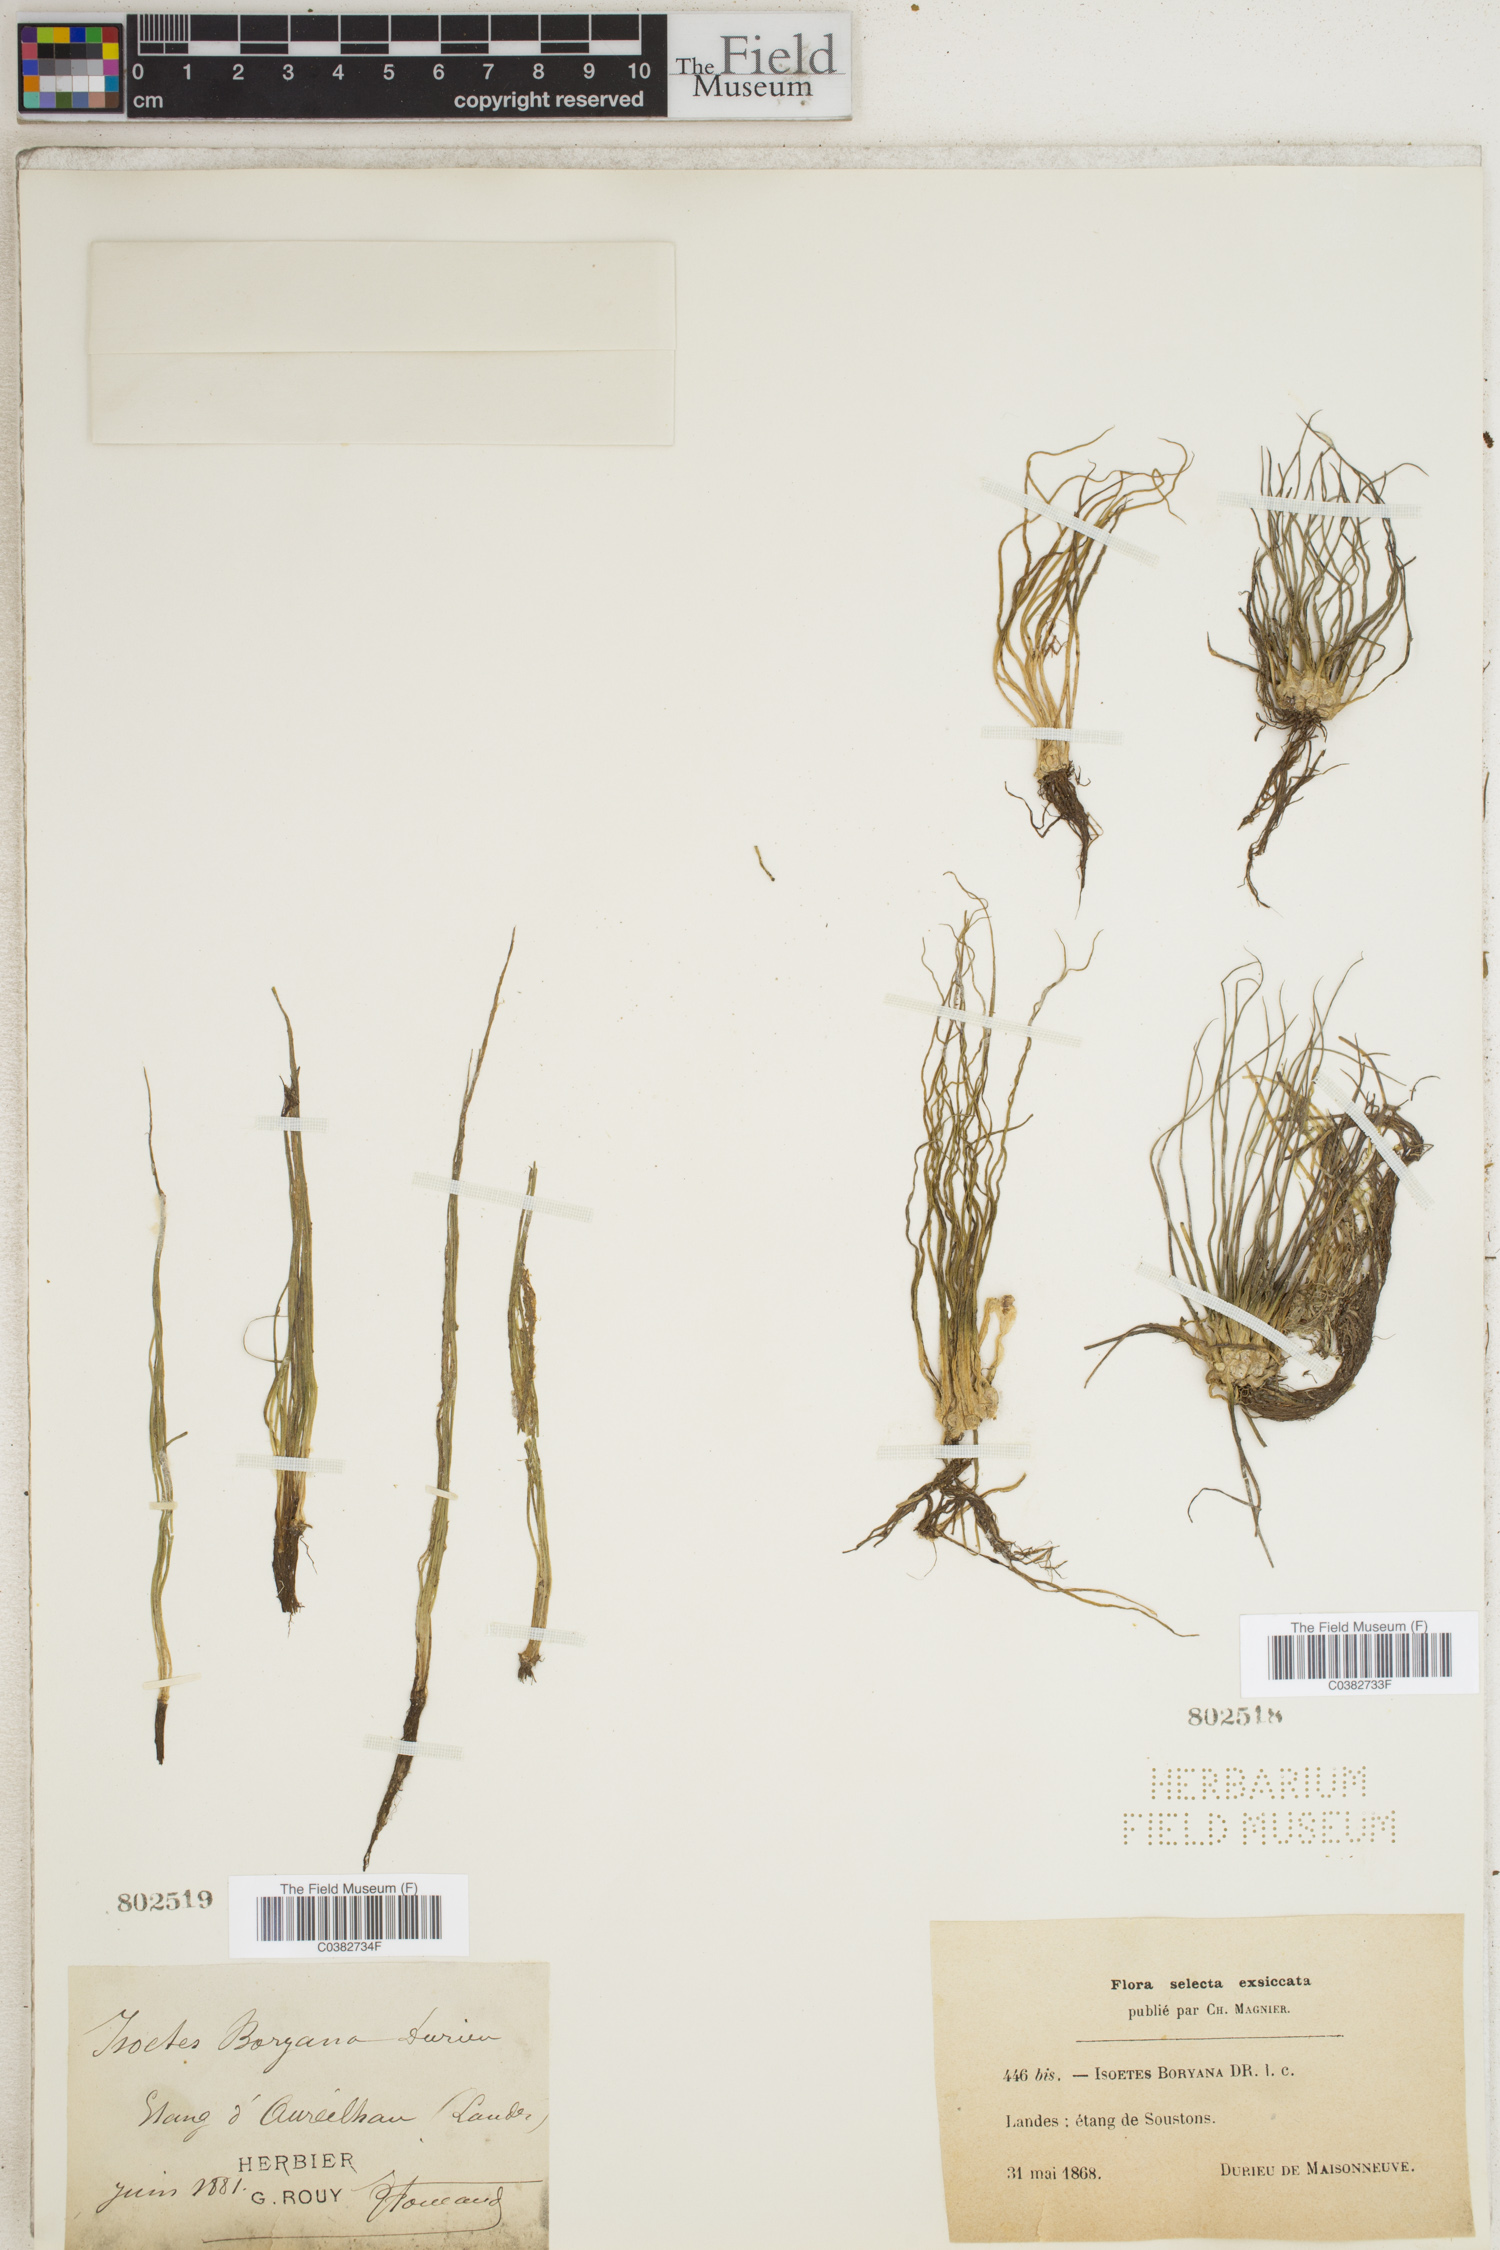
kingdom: Plantae
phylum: Tracheophyta
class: Lycopodiopsida
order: Isoetales
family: Isoetaceae
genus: Isoetes
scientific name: Isoetes boryana
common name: Gascoyne quillwort
